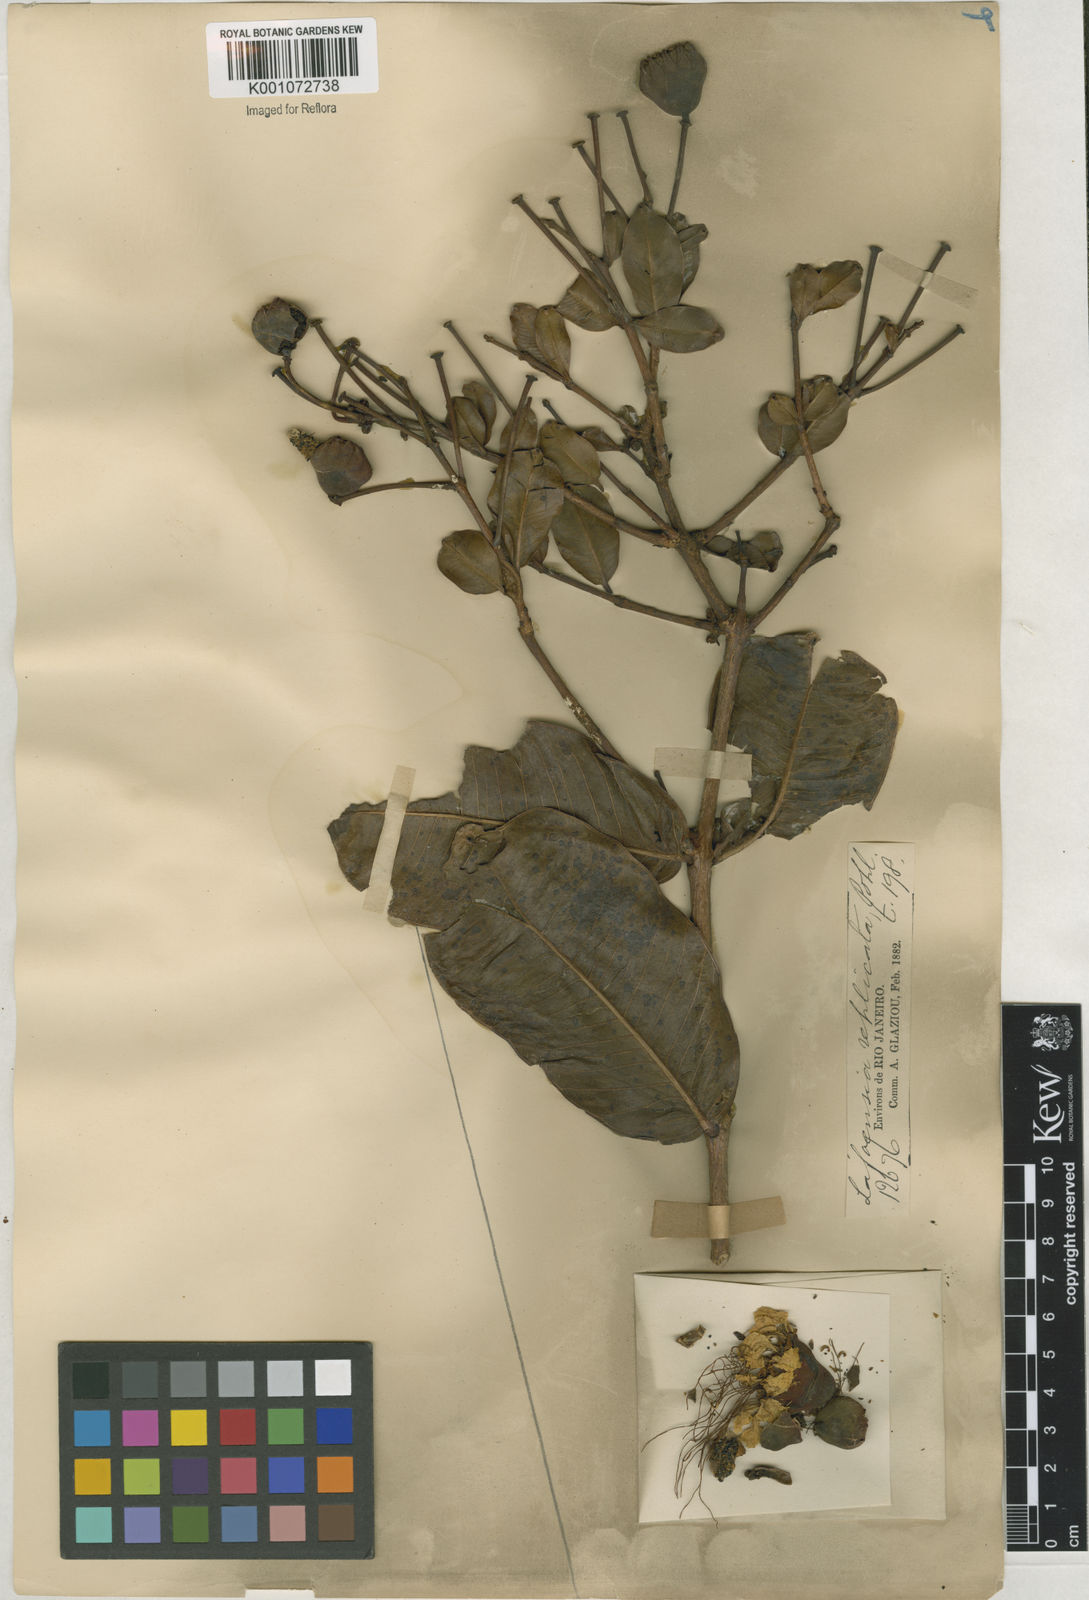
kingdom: Plantae
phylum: Tracheophyta
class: Magnoliopsida
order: Myrtales
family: Lythraceae
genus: Lafoensia
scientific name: Lafoensia vandelliana
